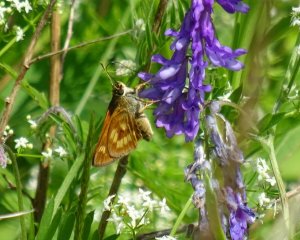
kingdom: Animalia
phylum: Arthropoda
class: Insecta
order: Lepidoptera
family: Hesperiidae
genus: Polites
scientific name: Polites
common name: Long Dash Skipper
